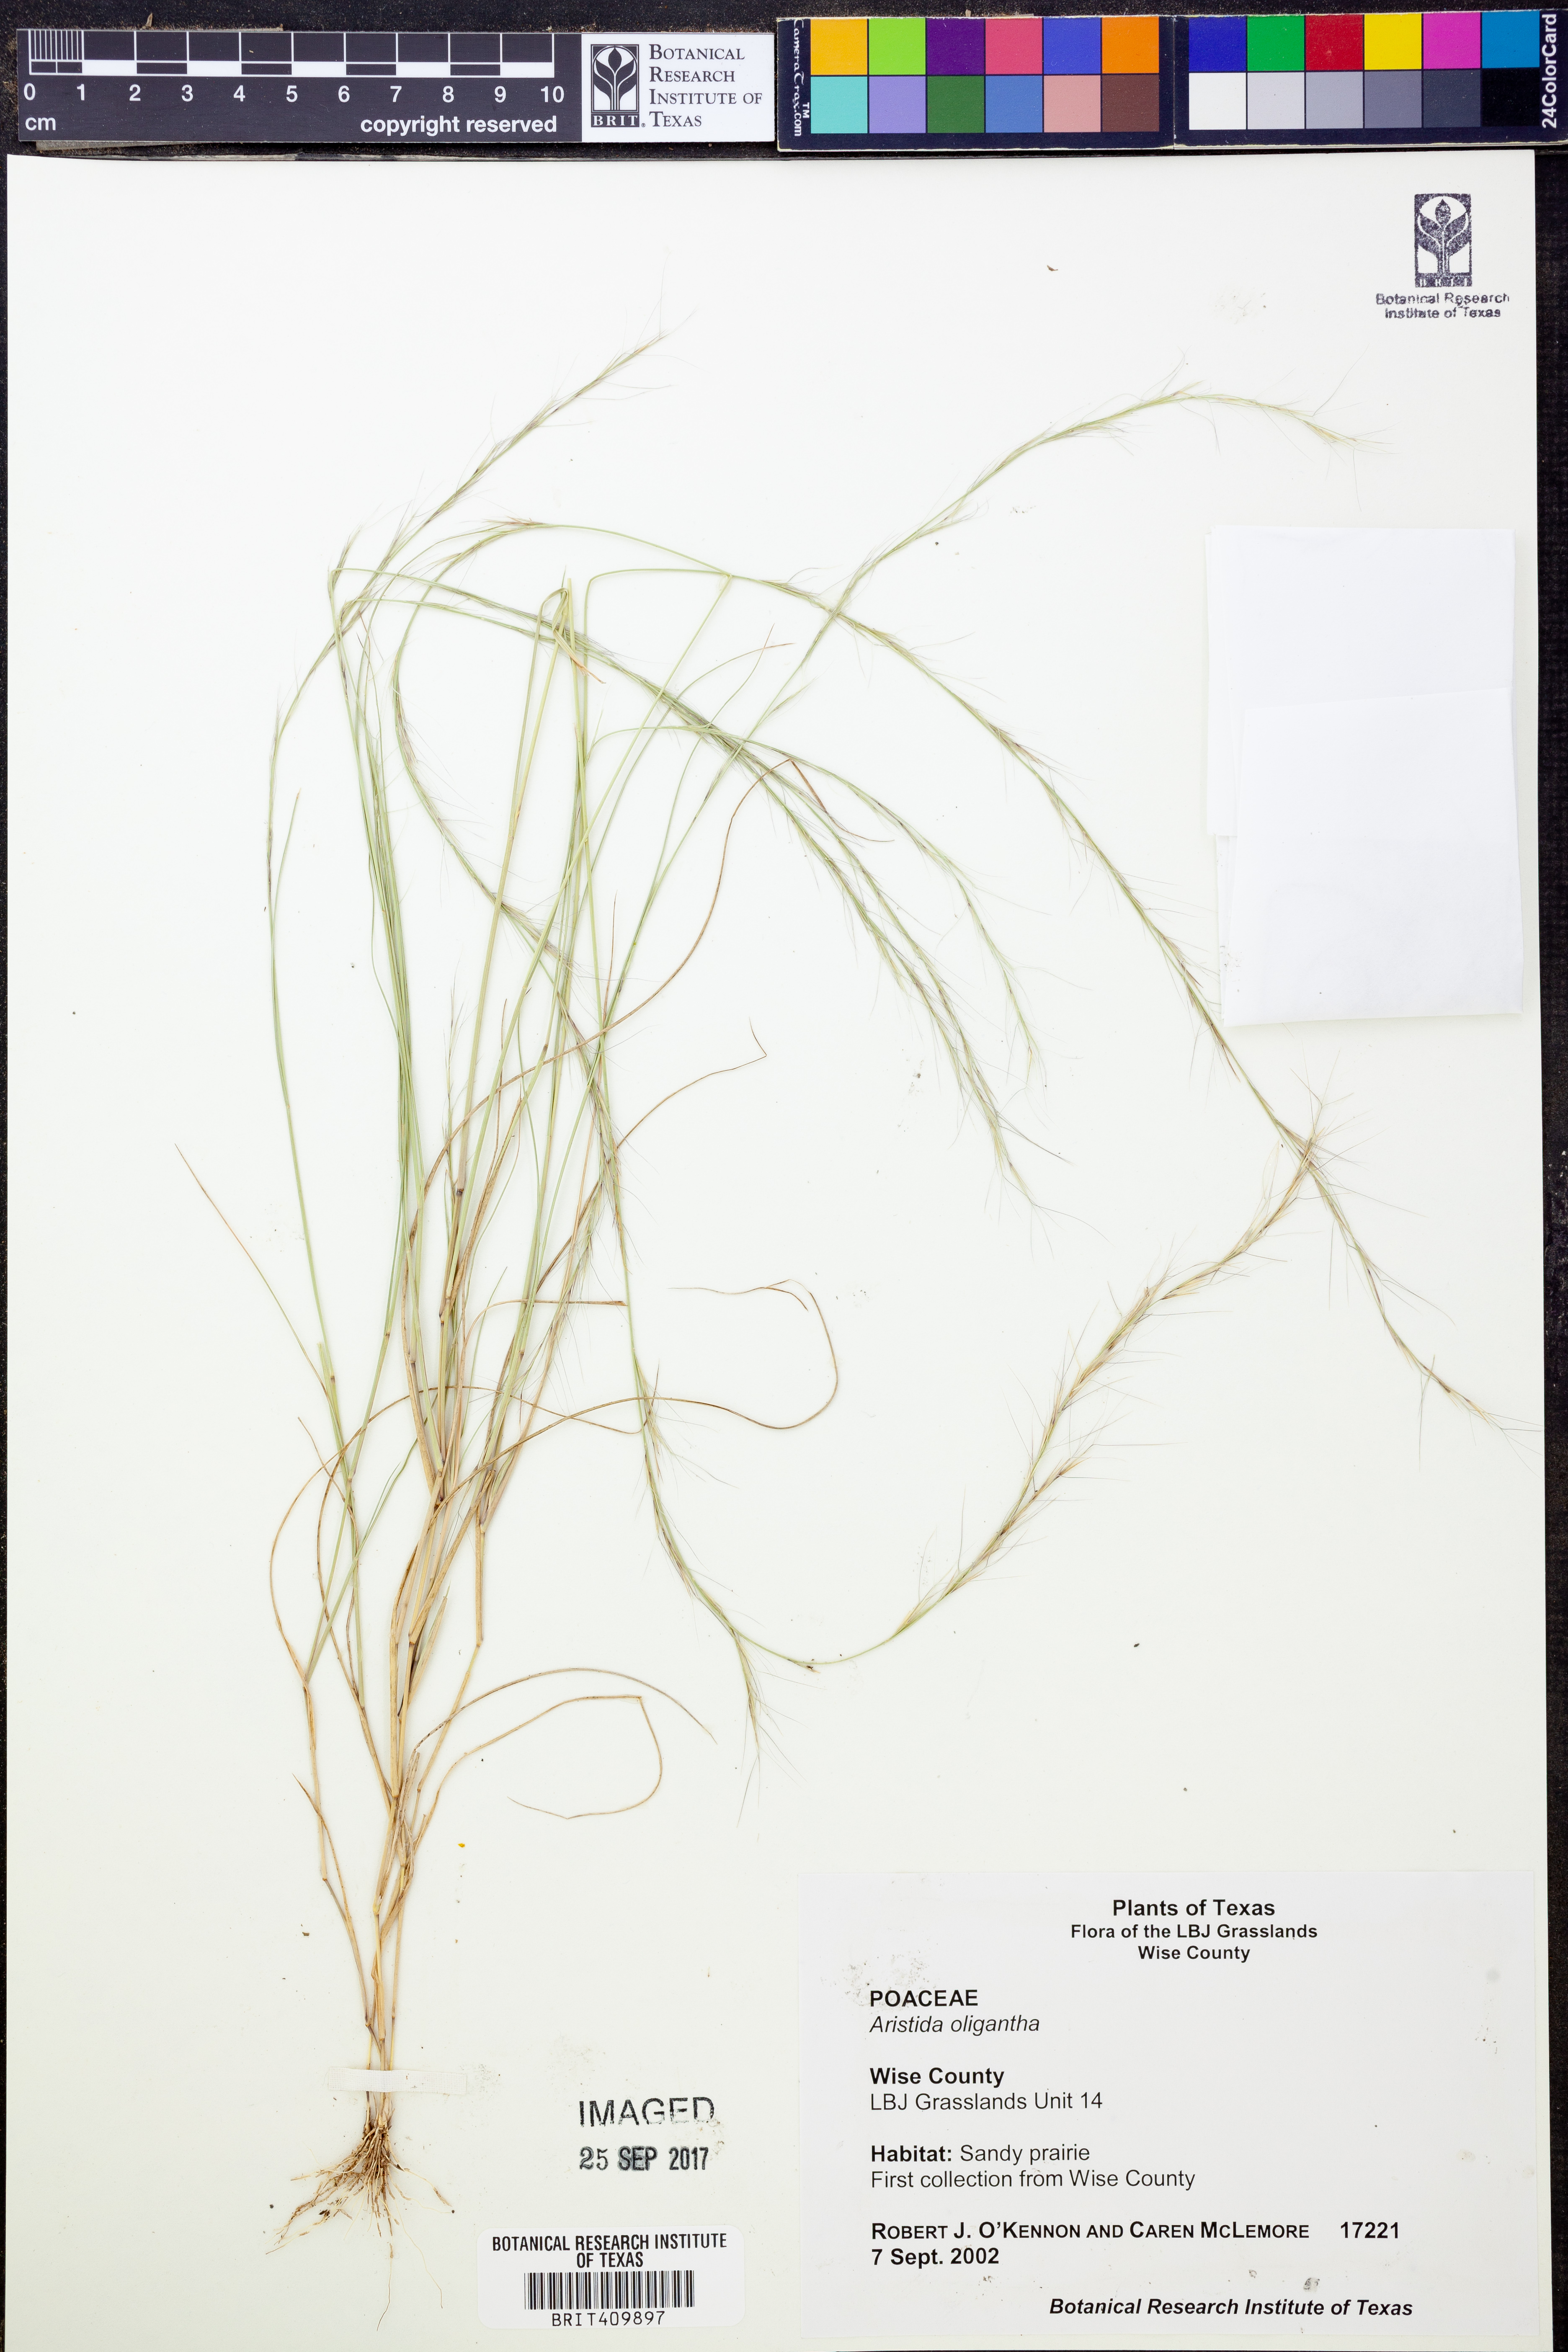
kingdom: Plantae
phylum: Tracheophyta
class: Liliopsida
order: Poales
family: Poaceae
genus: Aristida
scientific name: Aristida oligantha
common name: Few-flowered aristida
